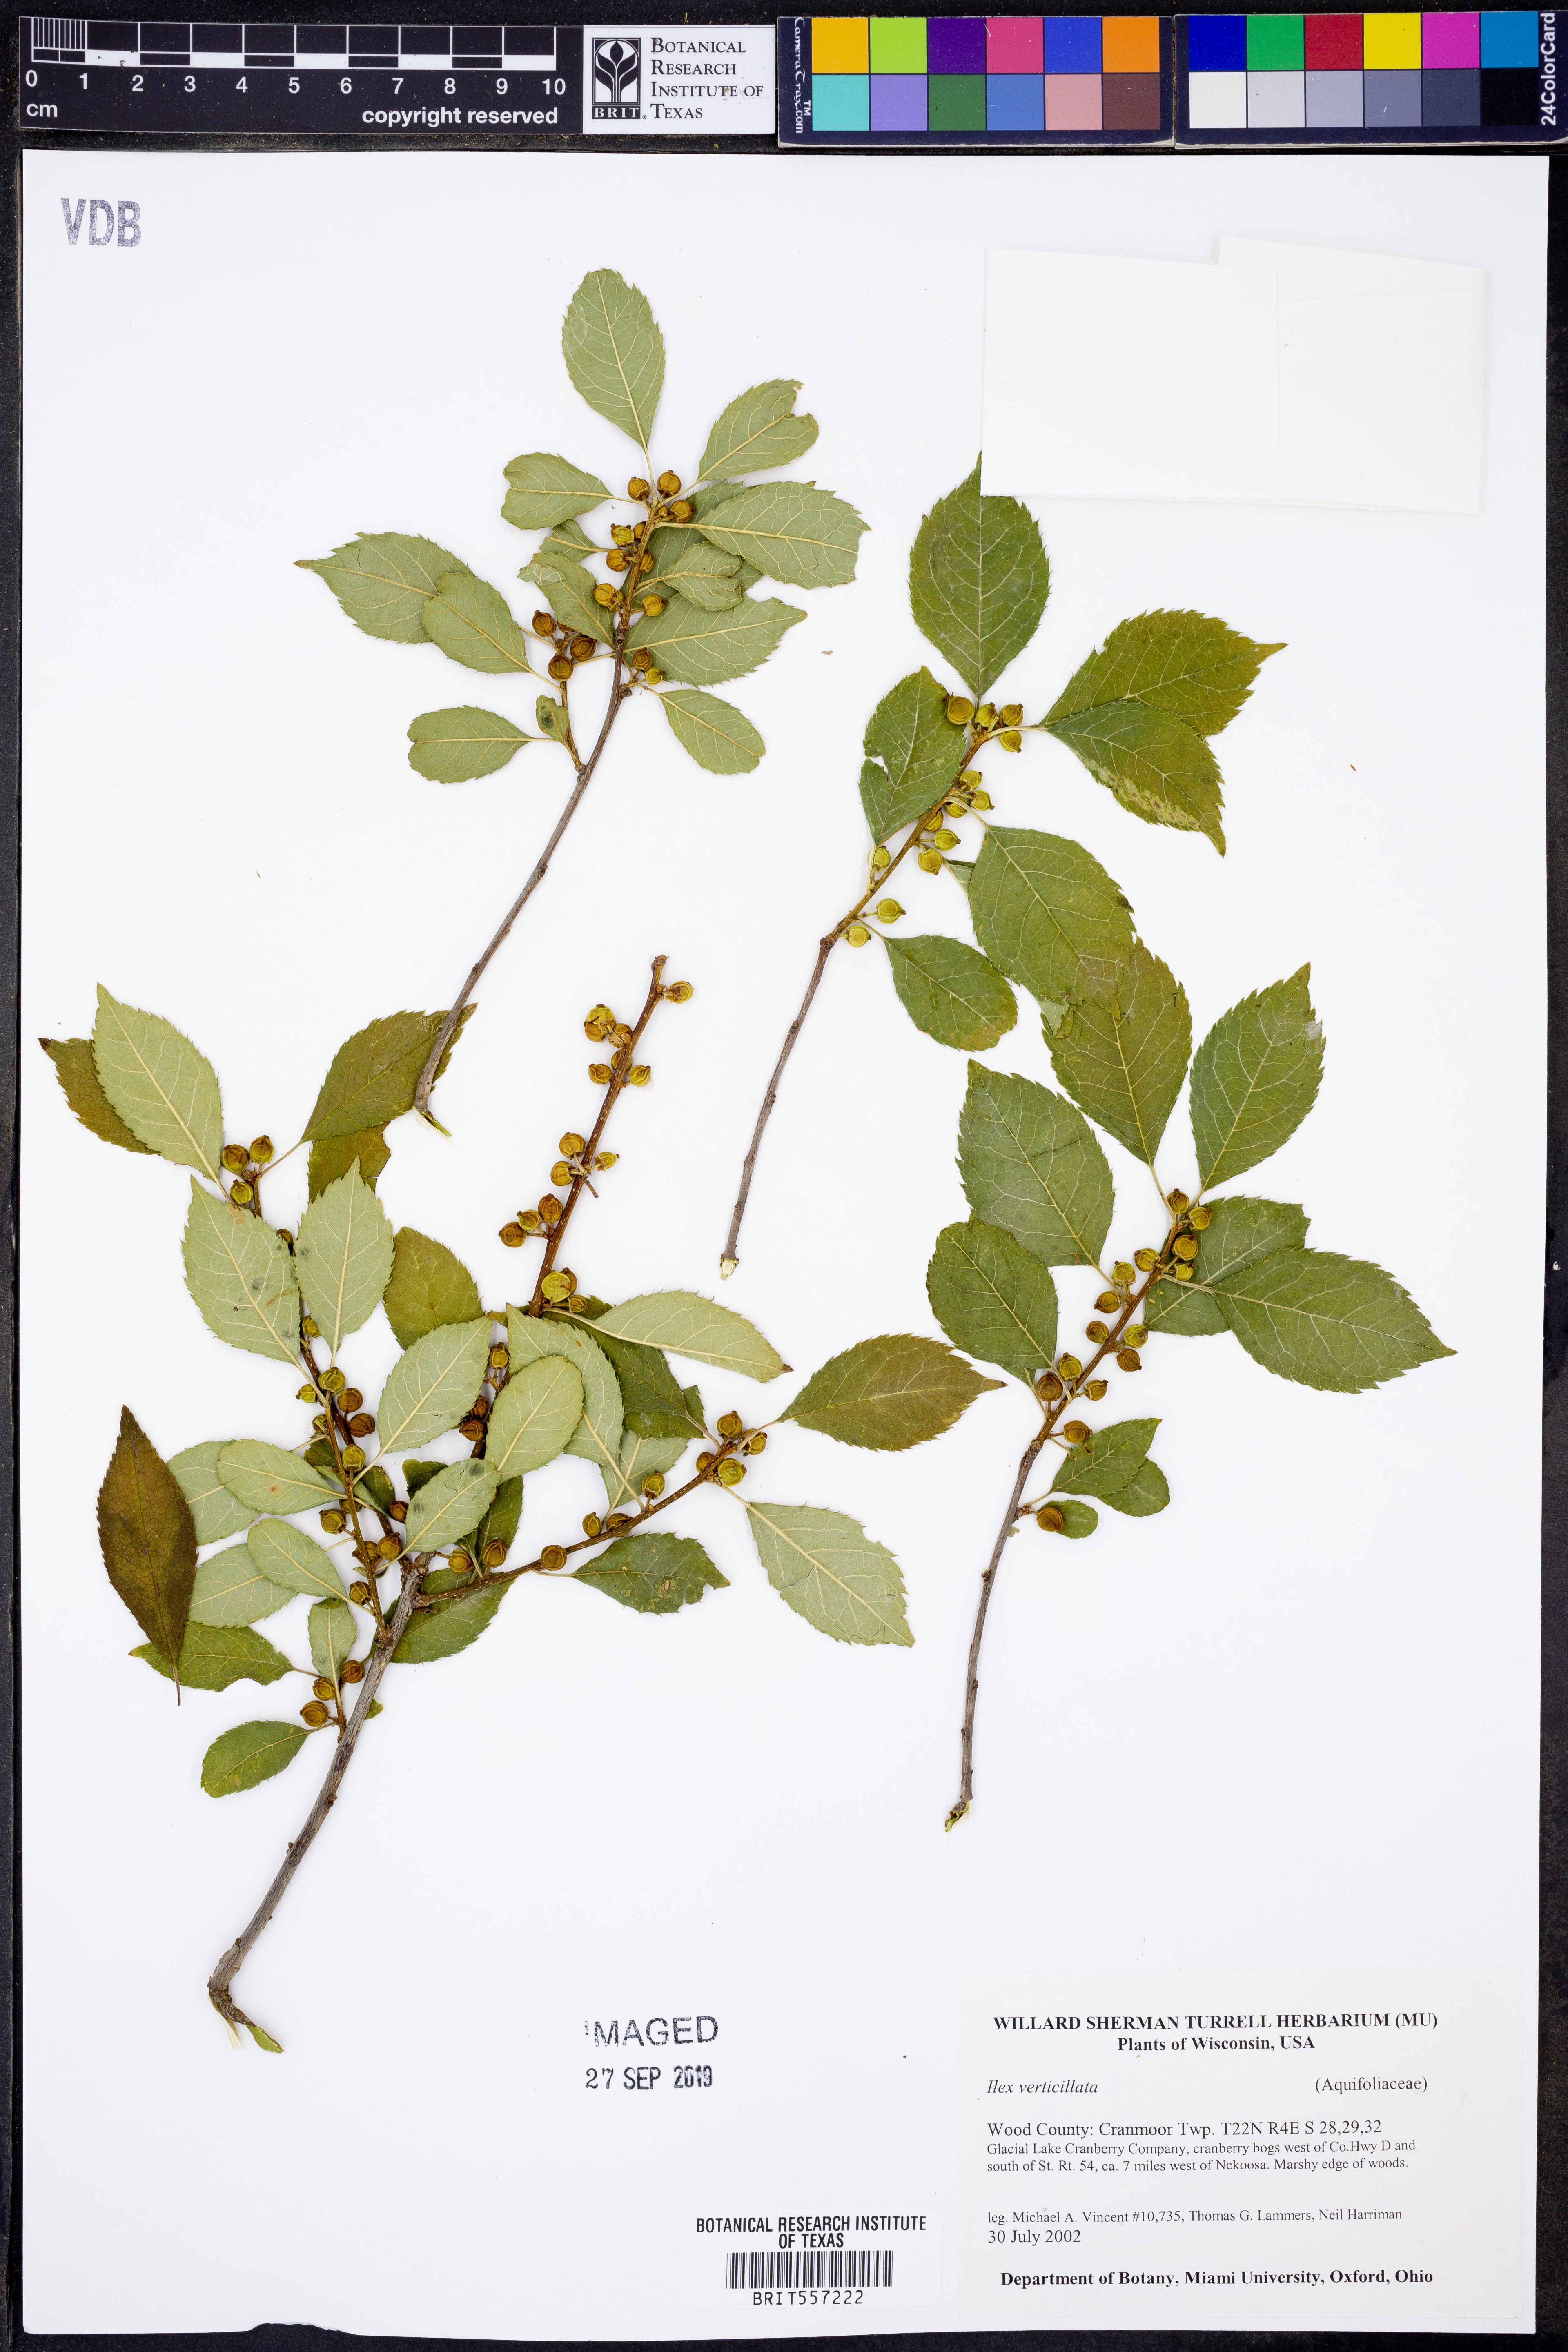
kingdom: Plantae
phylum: Tracheophyta
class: Magnoliopsida
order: Aquifoliales
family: Aquifoliaceae
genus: Ilex
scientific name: Ilex verticillata
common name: Virginia winterberry
